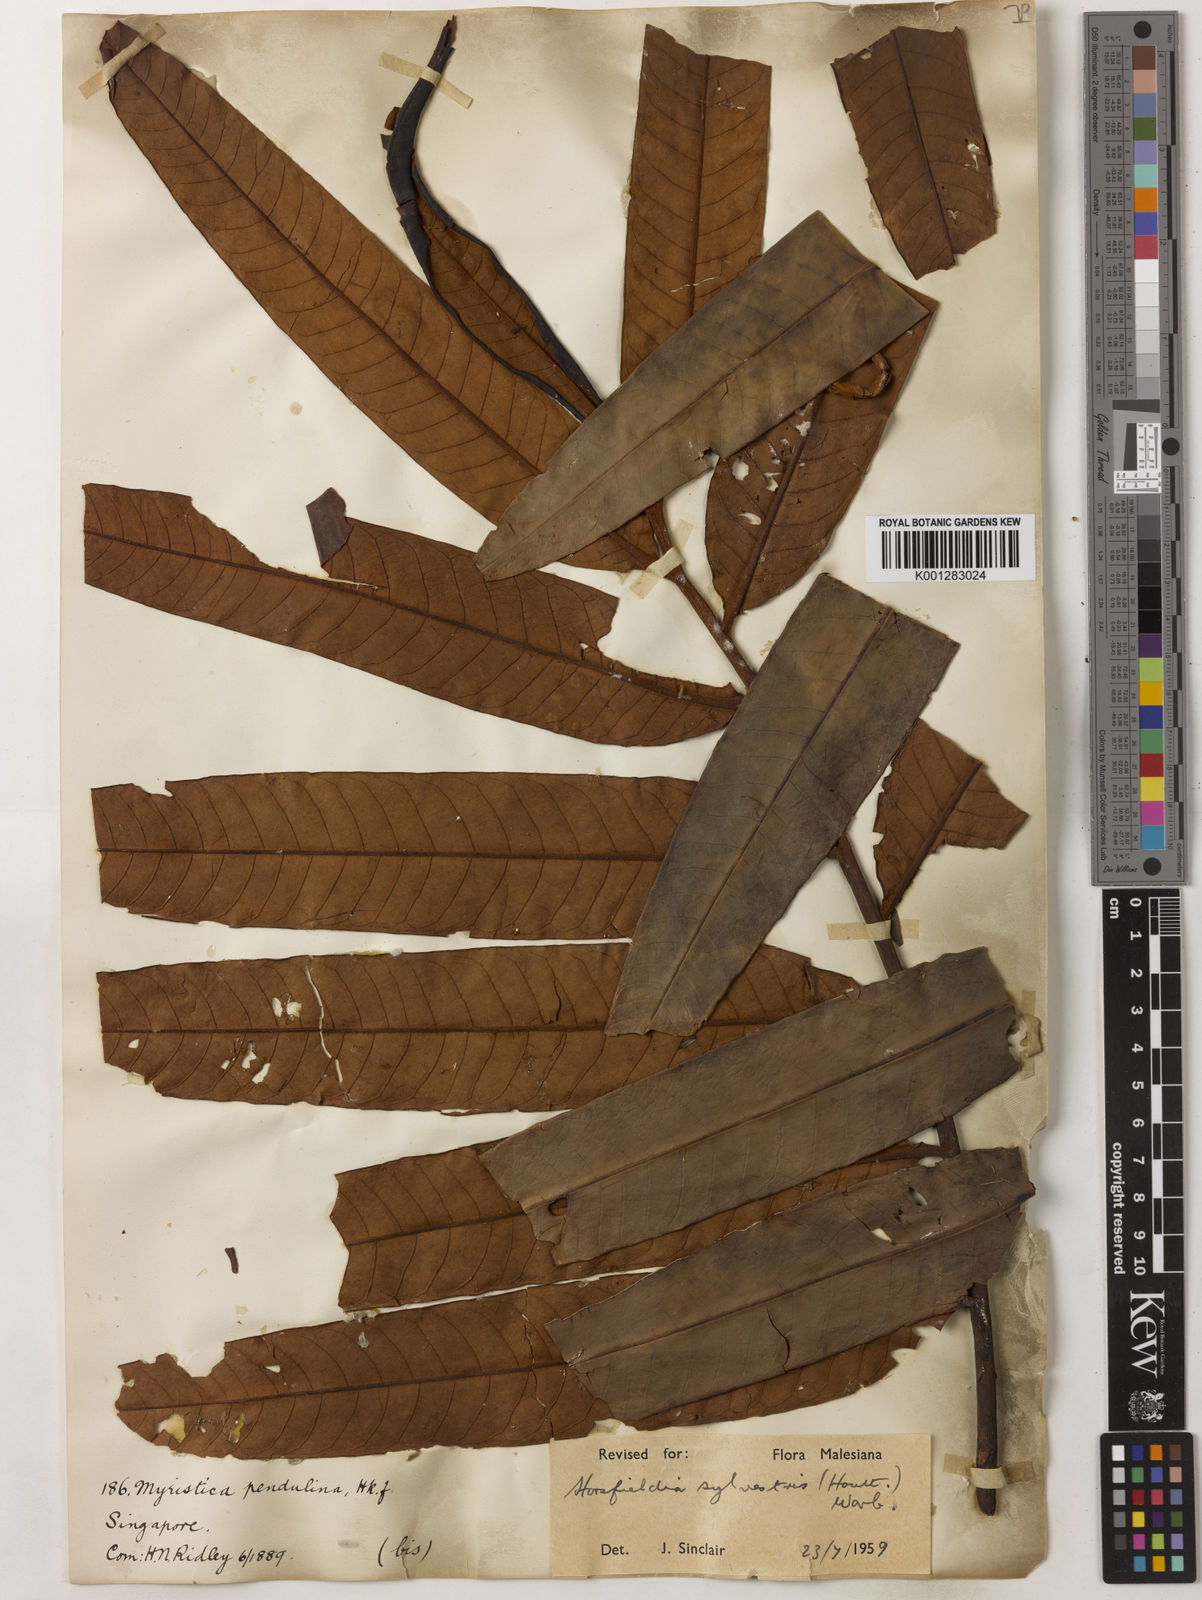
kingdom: Plantae
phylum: Tracheophyta
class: Magnoliopsida
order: Magnoliales
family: Myristicaceae
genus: Horsfieldia
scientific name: Horsfieldia sylvestris
